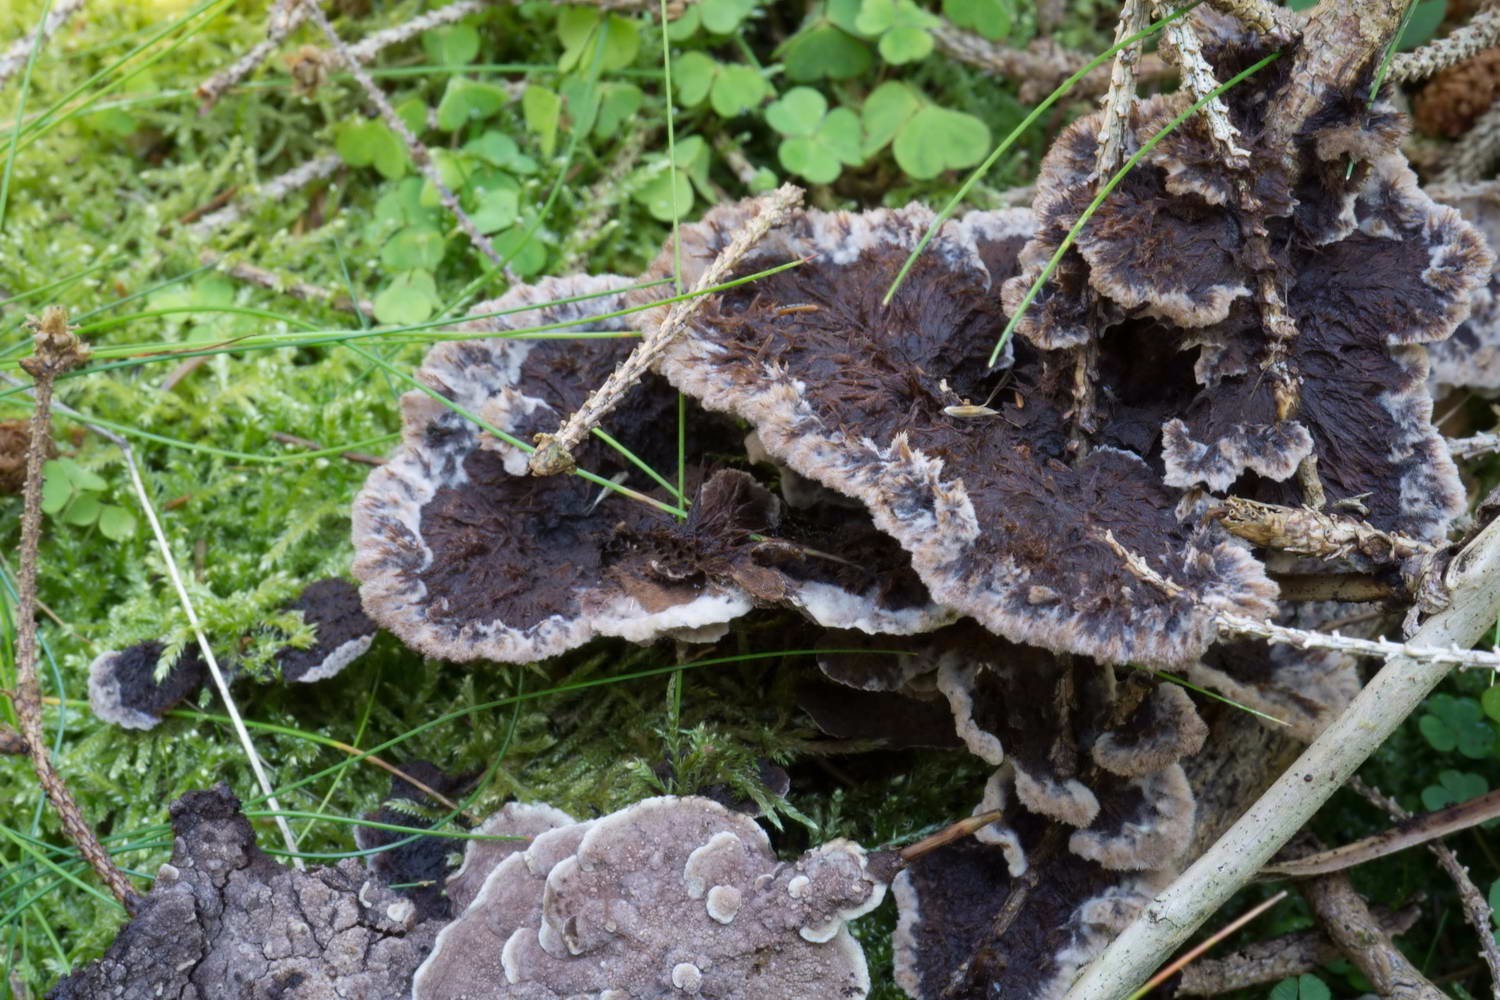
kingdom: Fungi
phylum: Basidiomycota
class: Agaricomycetes
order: Thelephorales
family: Thelephoraceae
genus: Thelephora
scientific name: Thelephora terrestris
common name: fliget frynsesvamp
